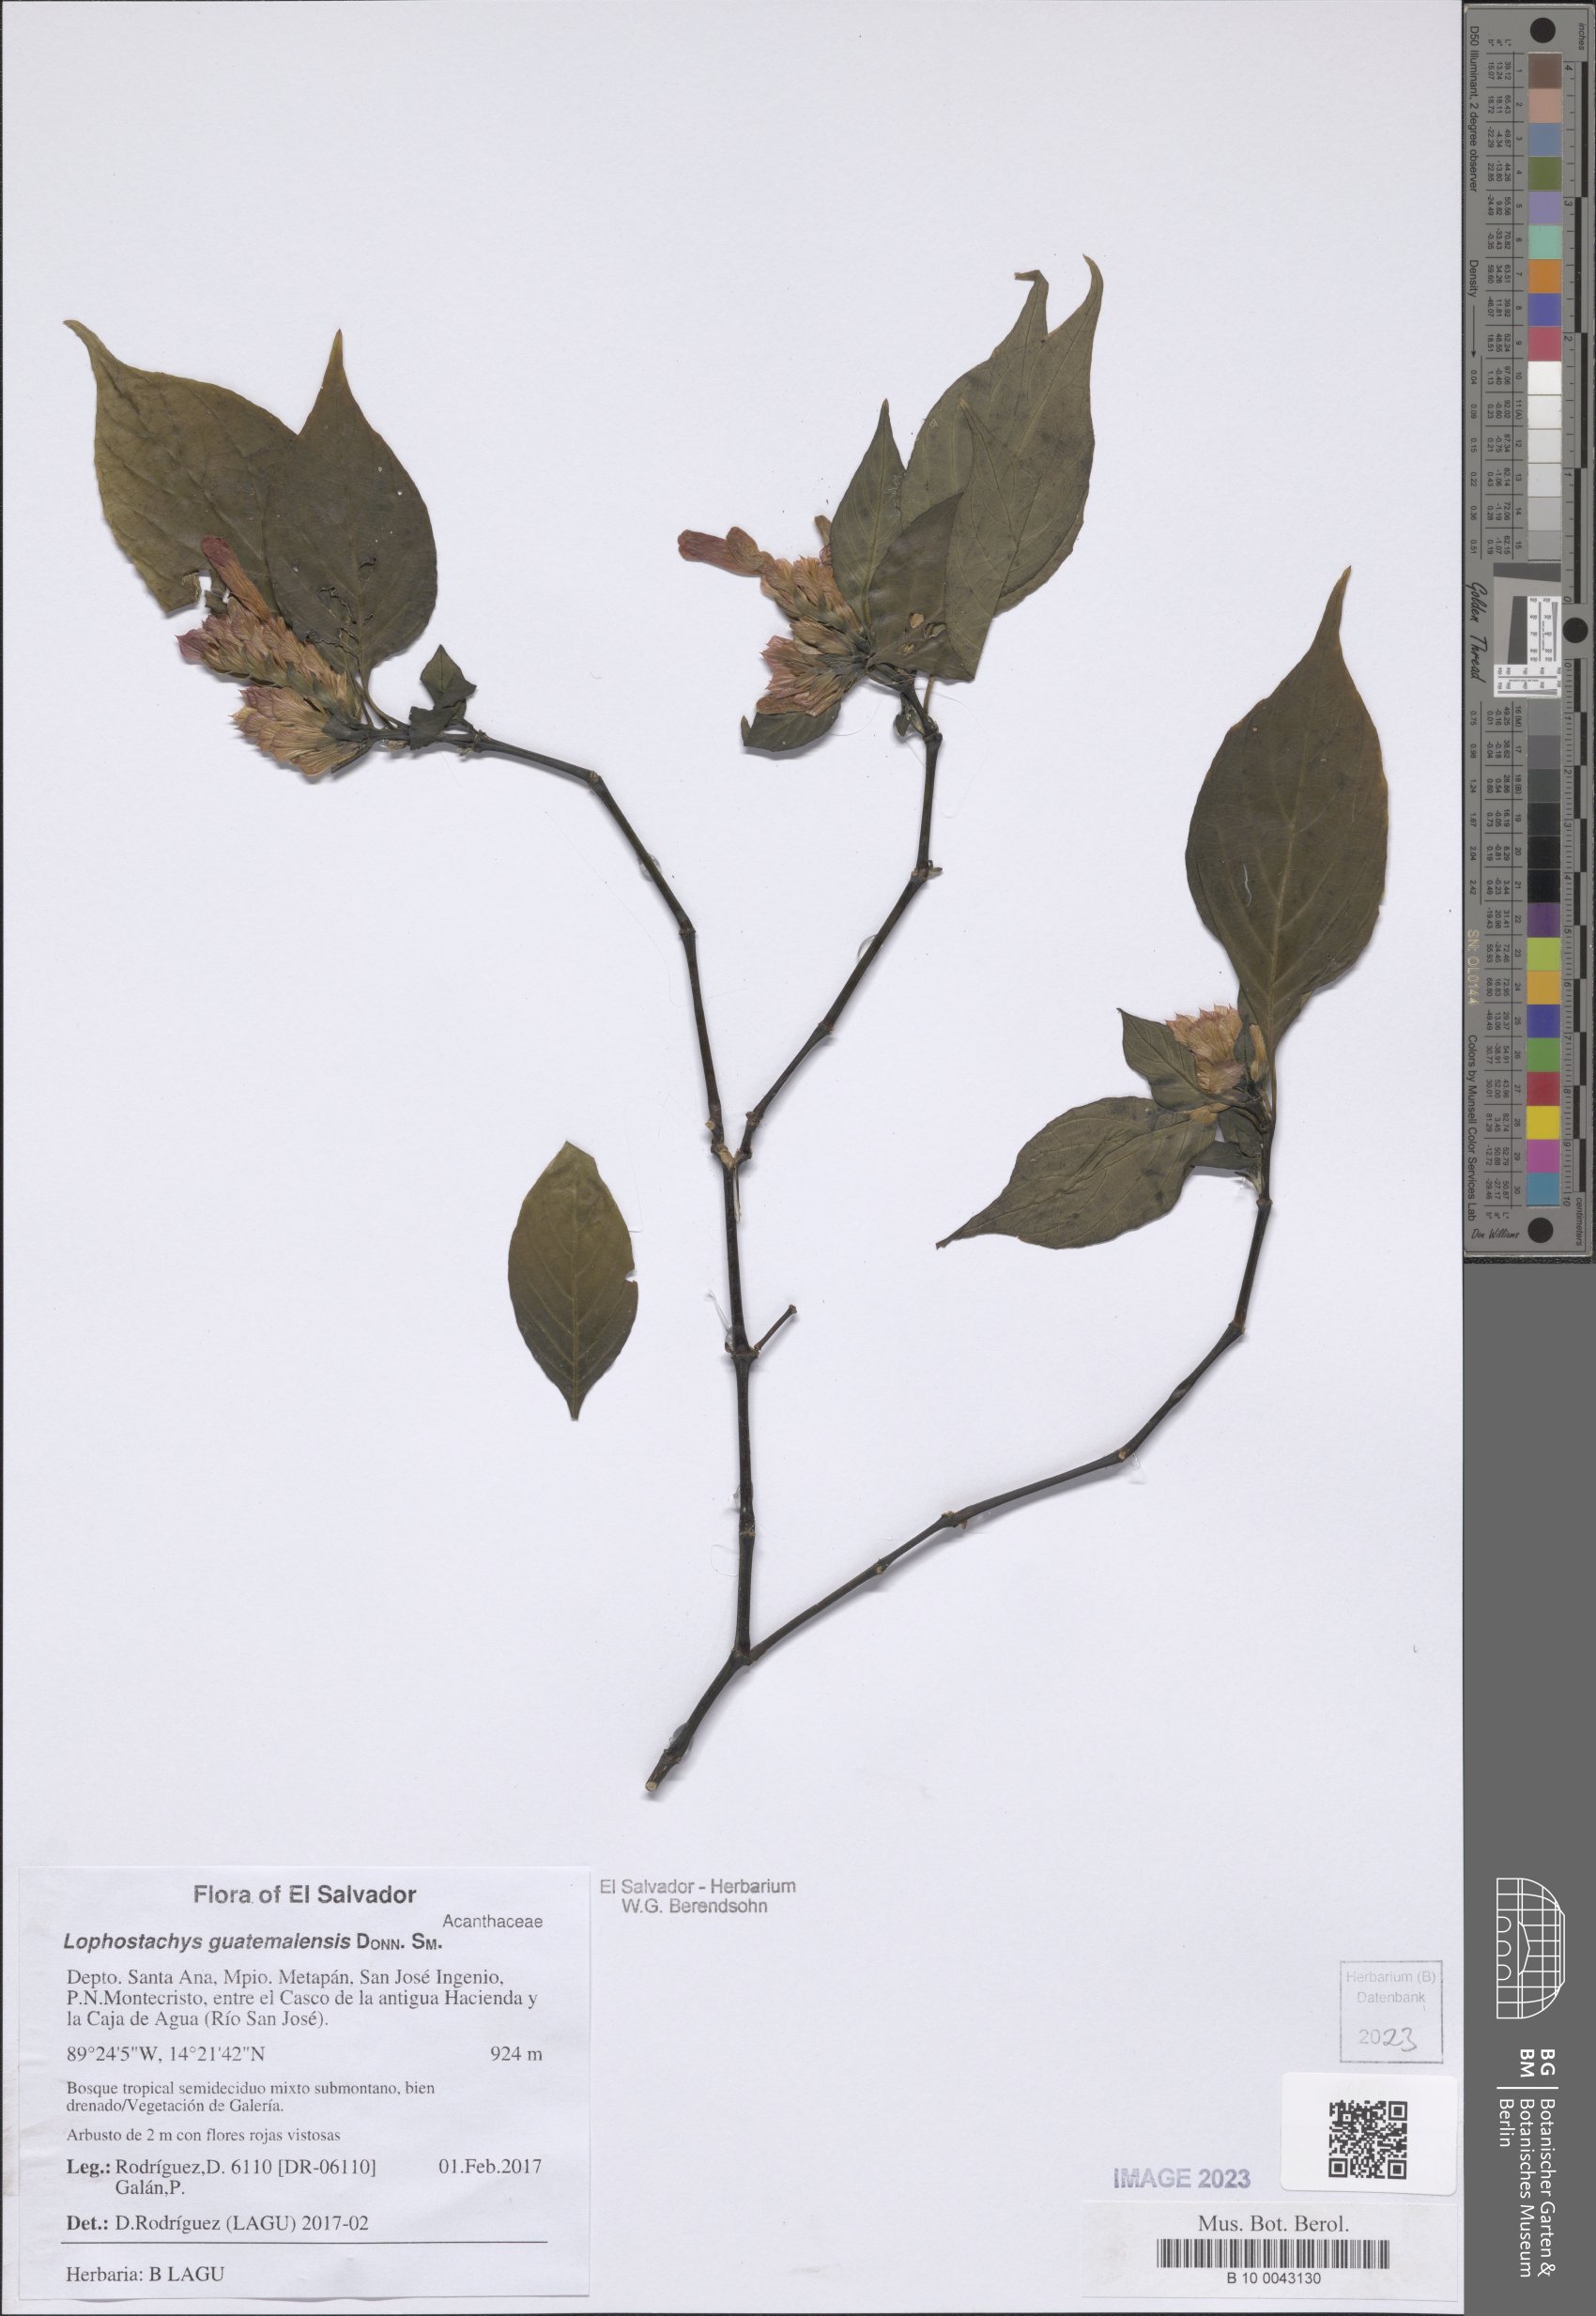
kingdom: Plantae
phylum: Tracheophyta
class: Magnoliopsida
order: Lamiales
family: Acanthaceae
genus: Lepidagathis
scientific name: Lepidagathis guatemalensis
